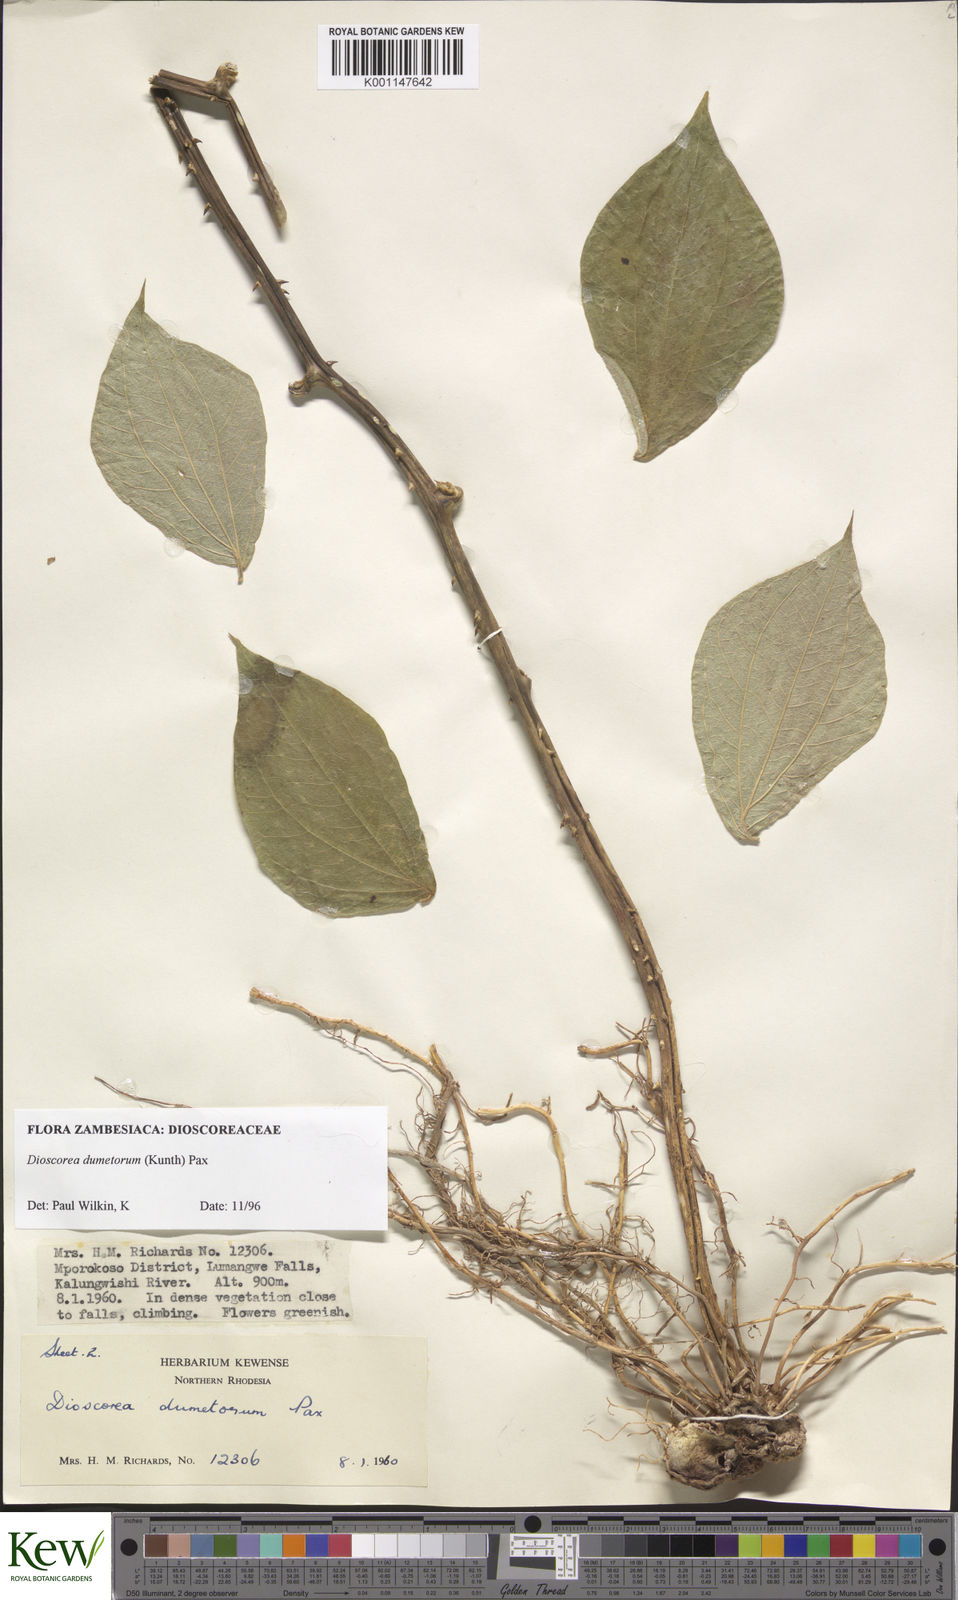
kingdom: Plantae
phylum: Tracheophyta
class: Liliopsida
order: Dioscoreales
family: Dioscoreaceae
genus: Dioscorea
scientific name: Dioscorea dumetorum
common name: African bitter yam
